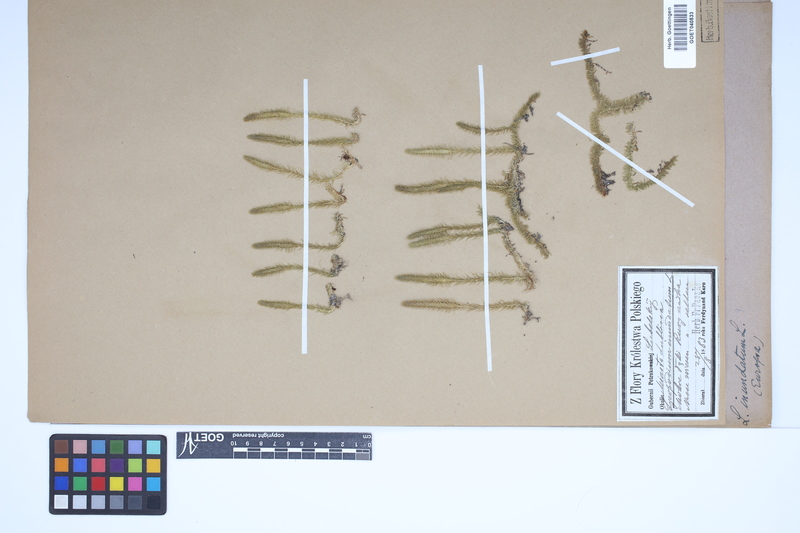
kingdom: Plantae
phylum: Tracheophyta
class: Lycopodiopsida
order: Lycopodiales
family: Lycopodiaceae
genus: Lycopodiella
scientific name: Lycopodiella inundata
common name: Marsh clubmoss
